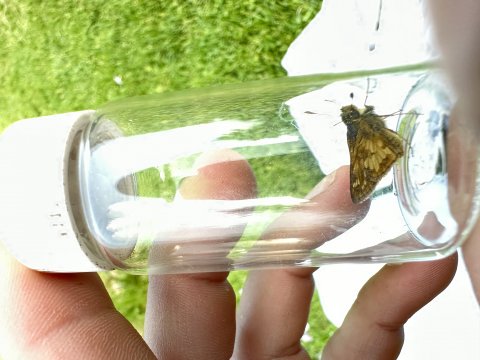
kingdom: Animalia
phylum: Arthropoda
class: Insecta
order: Lepidoptera
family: Hesperiidae
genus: Polites
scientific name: Polites coras
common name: Peck's Skipper
